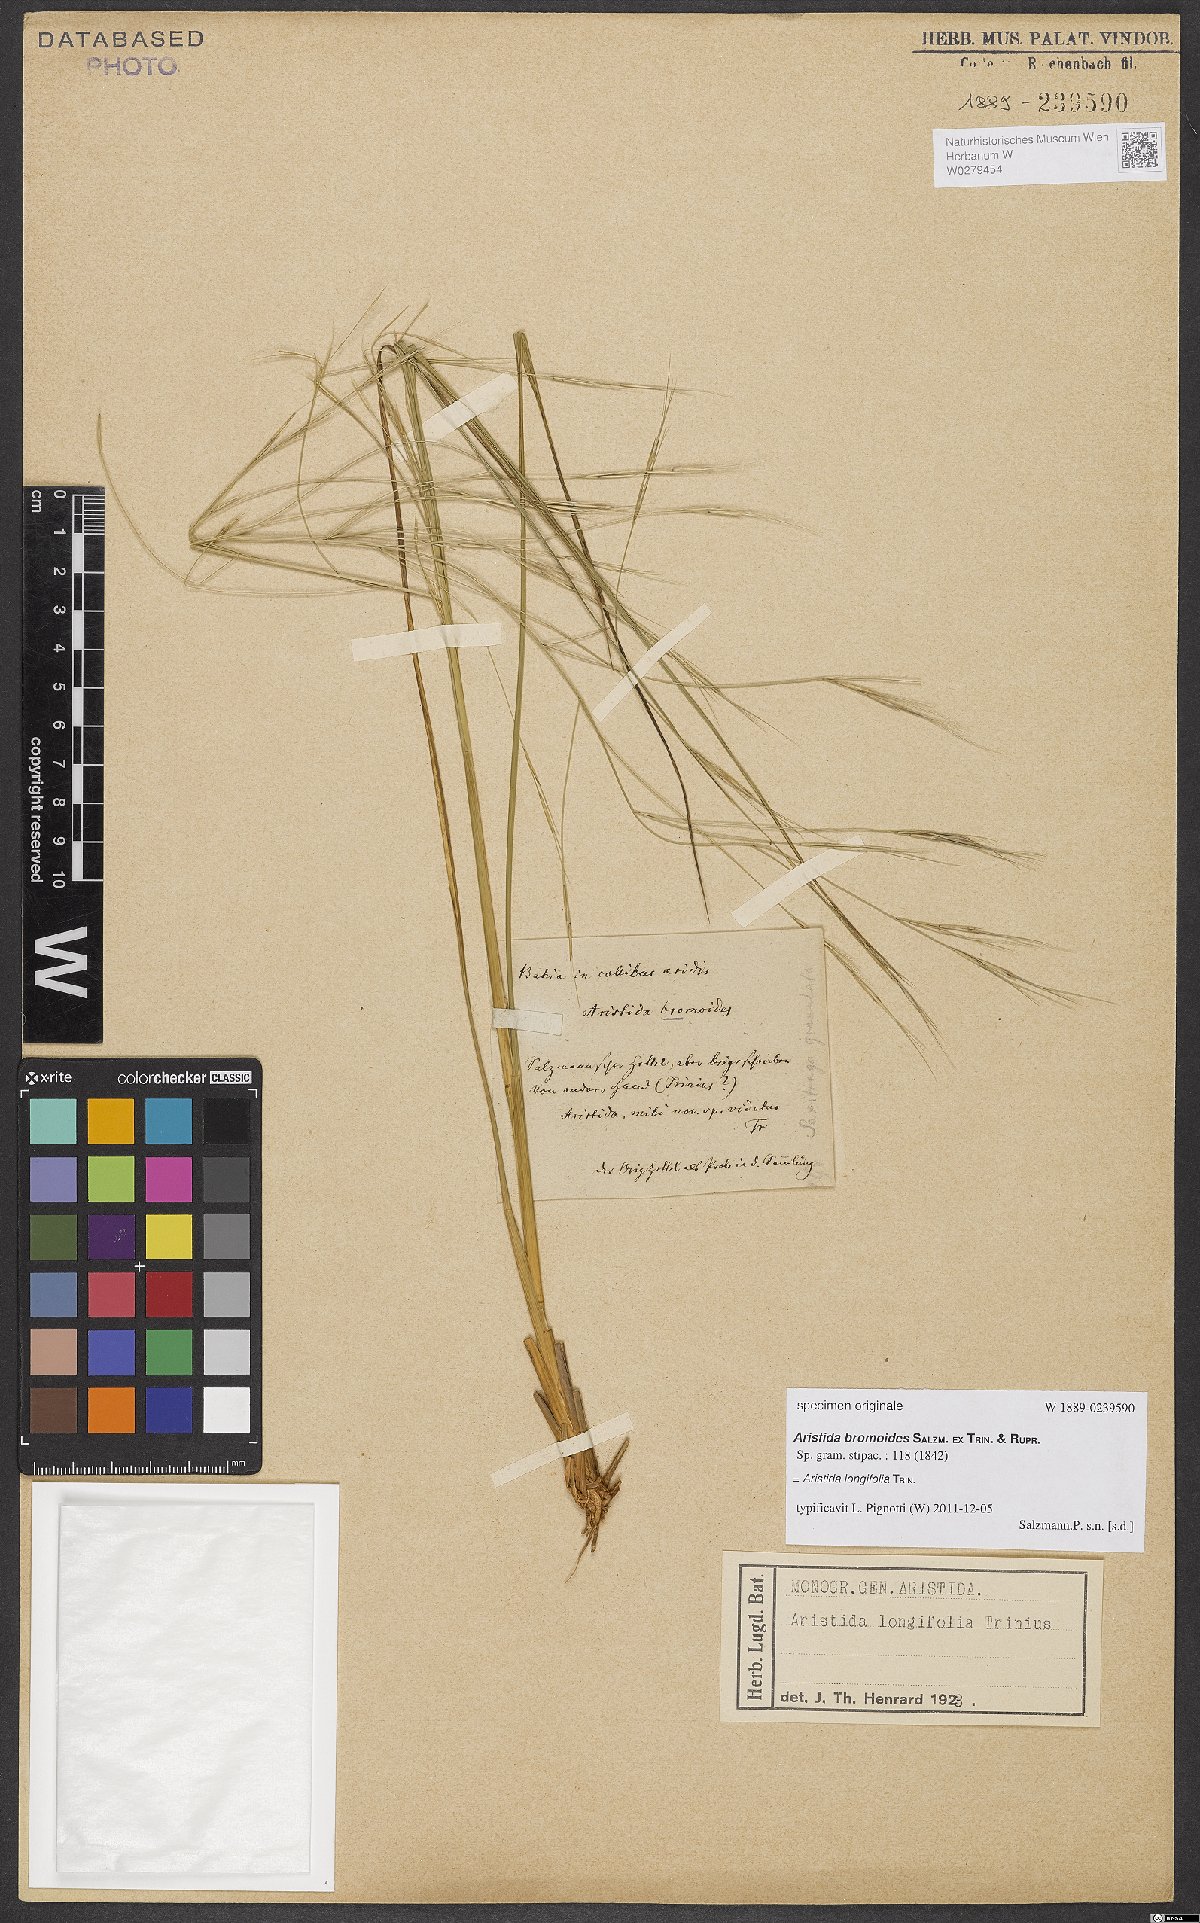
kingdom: Plantae
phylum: Tracheophyta
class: Liliopsida
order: Poales
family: Poaceae
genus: Aristida
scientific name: Aristida longifolia
